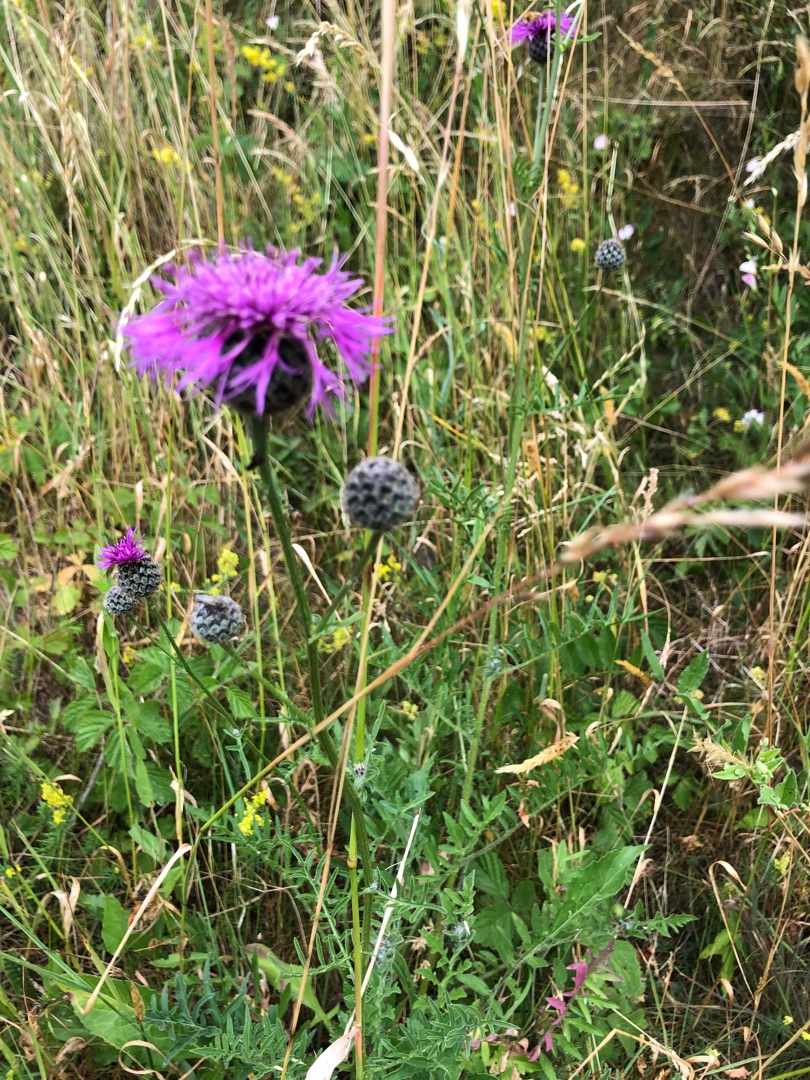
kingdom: Plantae
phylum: Tracheophyta
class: Magnoliopsida
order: Asterales
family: Asteraceae
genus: Centaurea
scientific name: Centaurea scabiosa
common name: Stor knopurt
